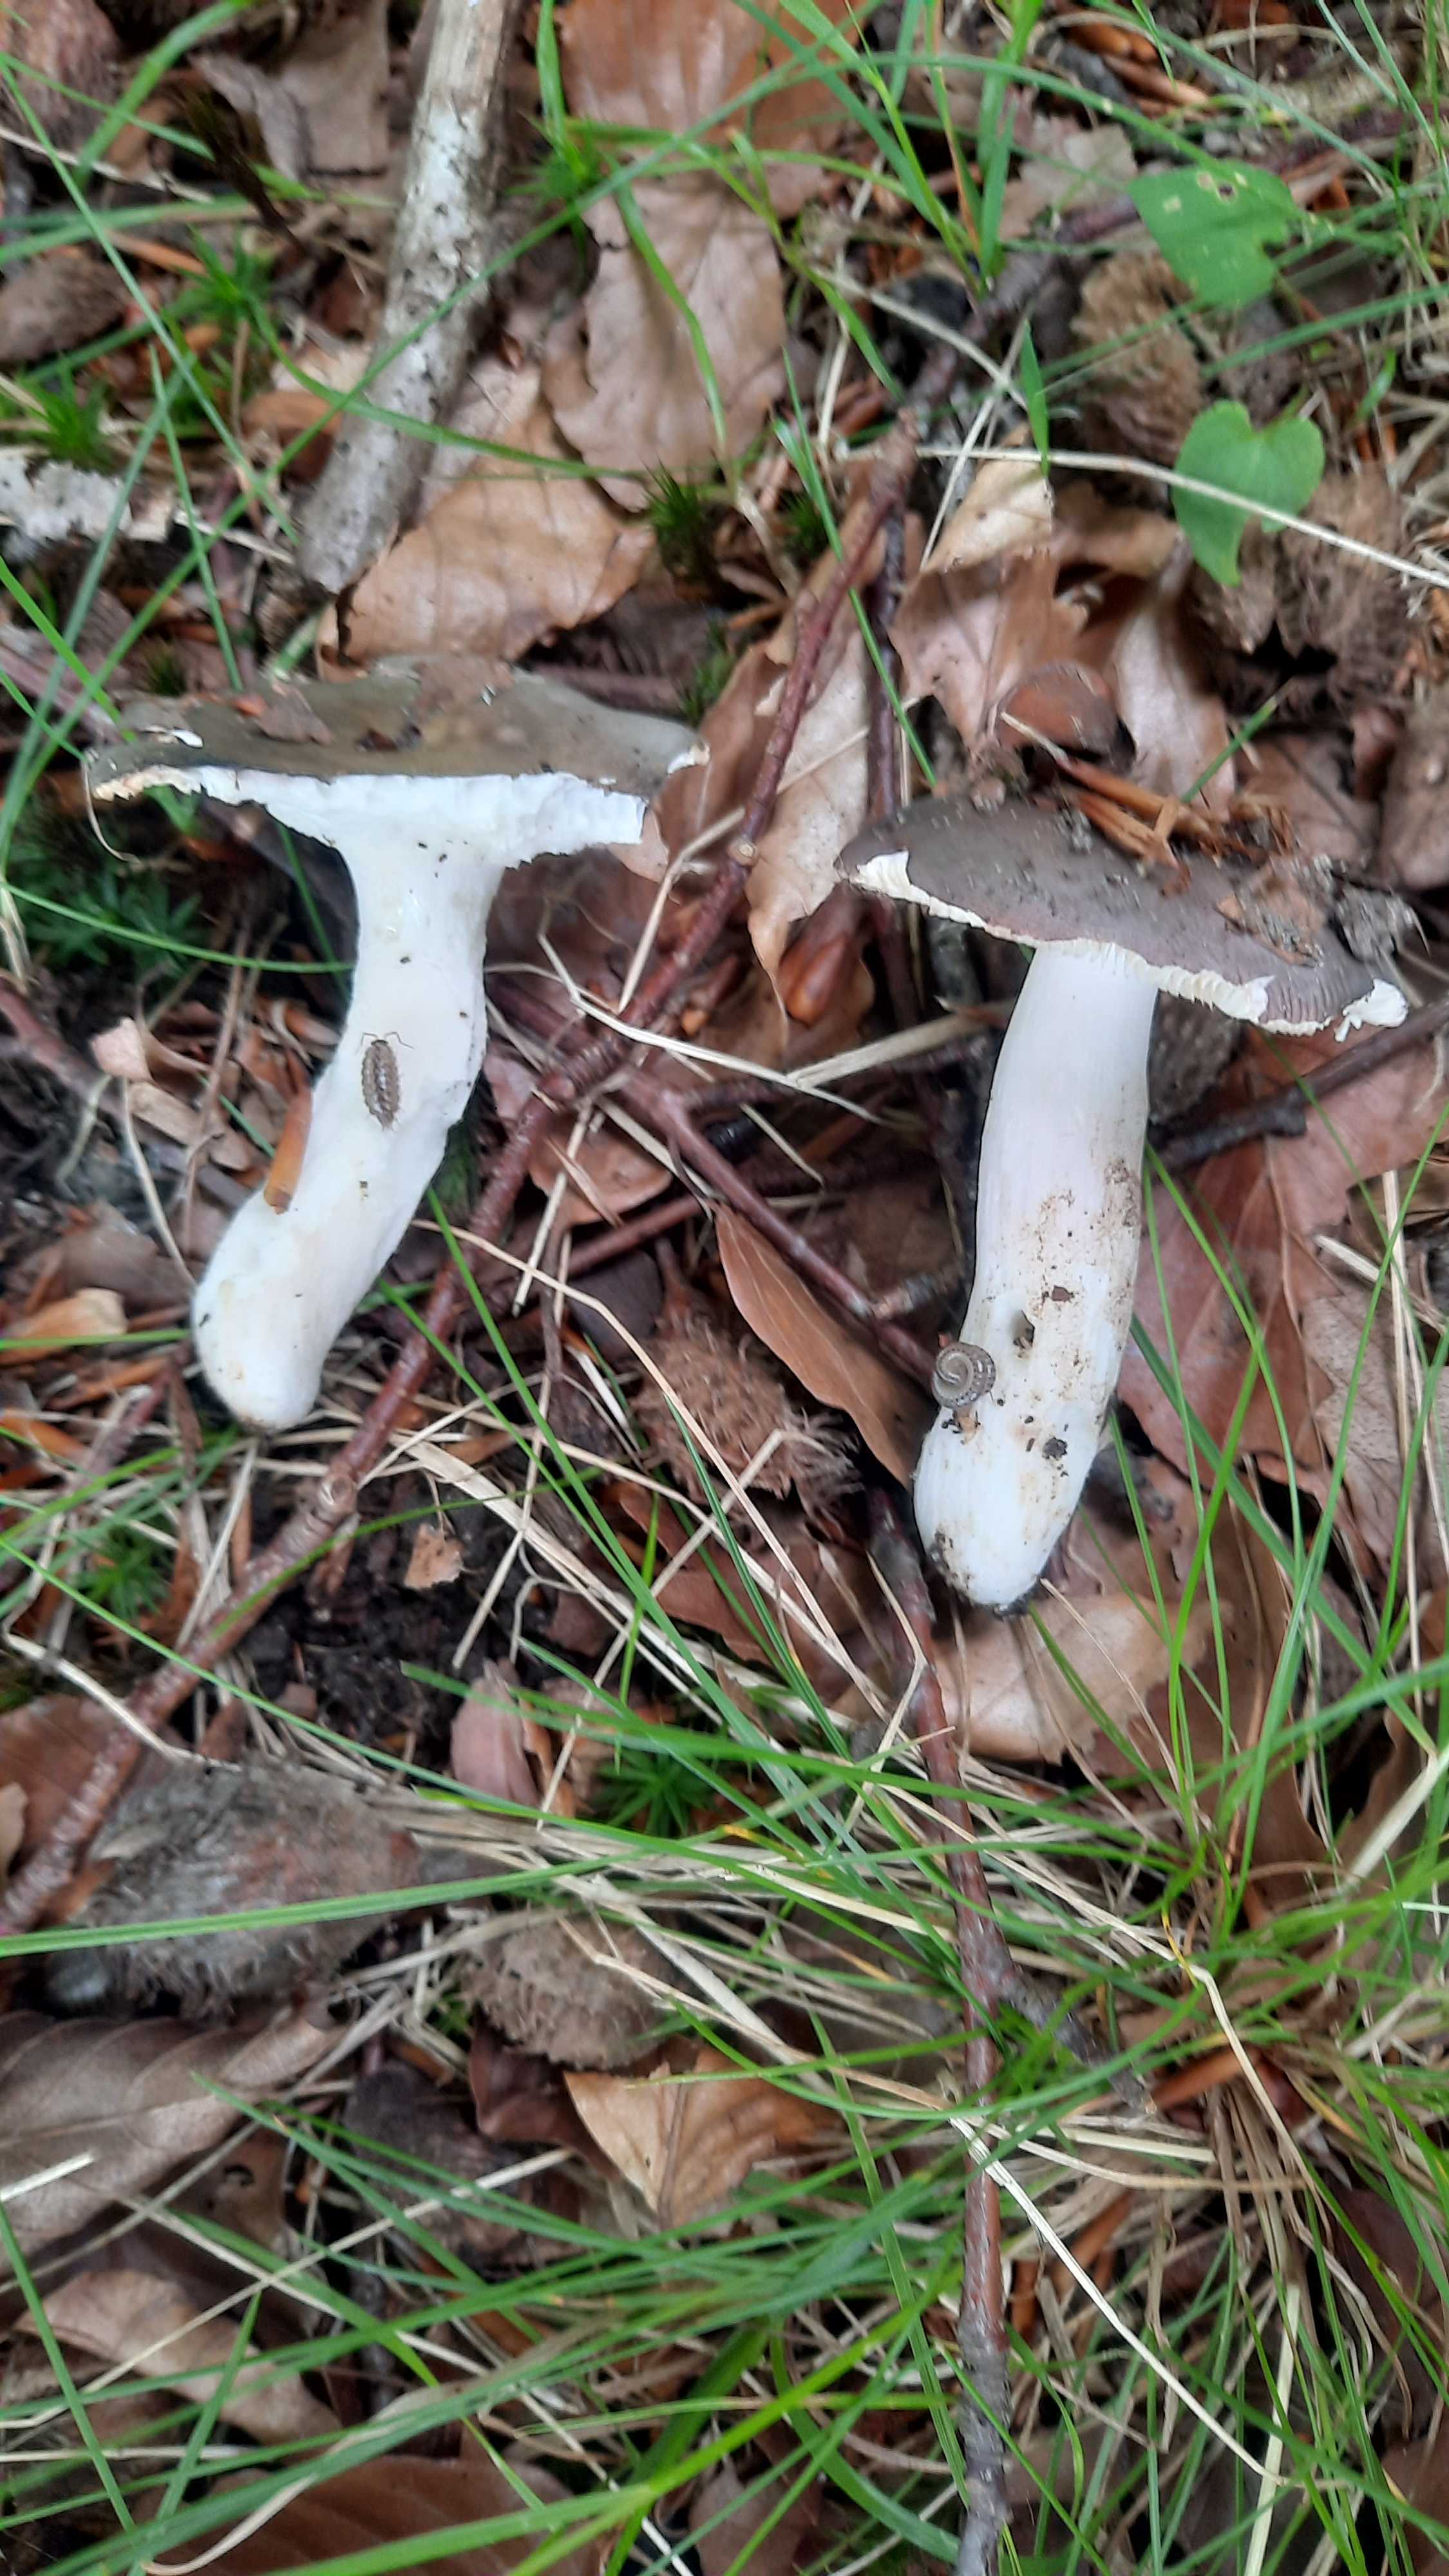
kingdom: Fungi
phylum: Basidiomycota
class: Agaricomycetes
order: Russulales
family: Russulaceae
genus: Russula
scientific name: Russula cyanoxantha
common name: broget skørhat
